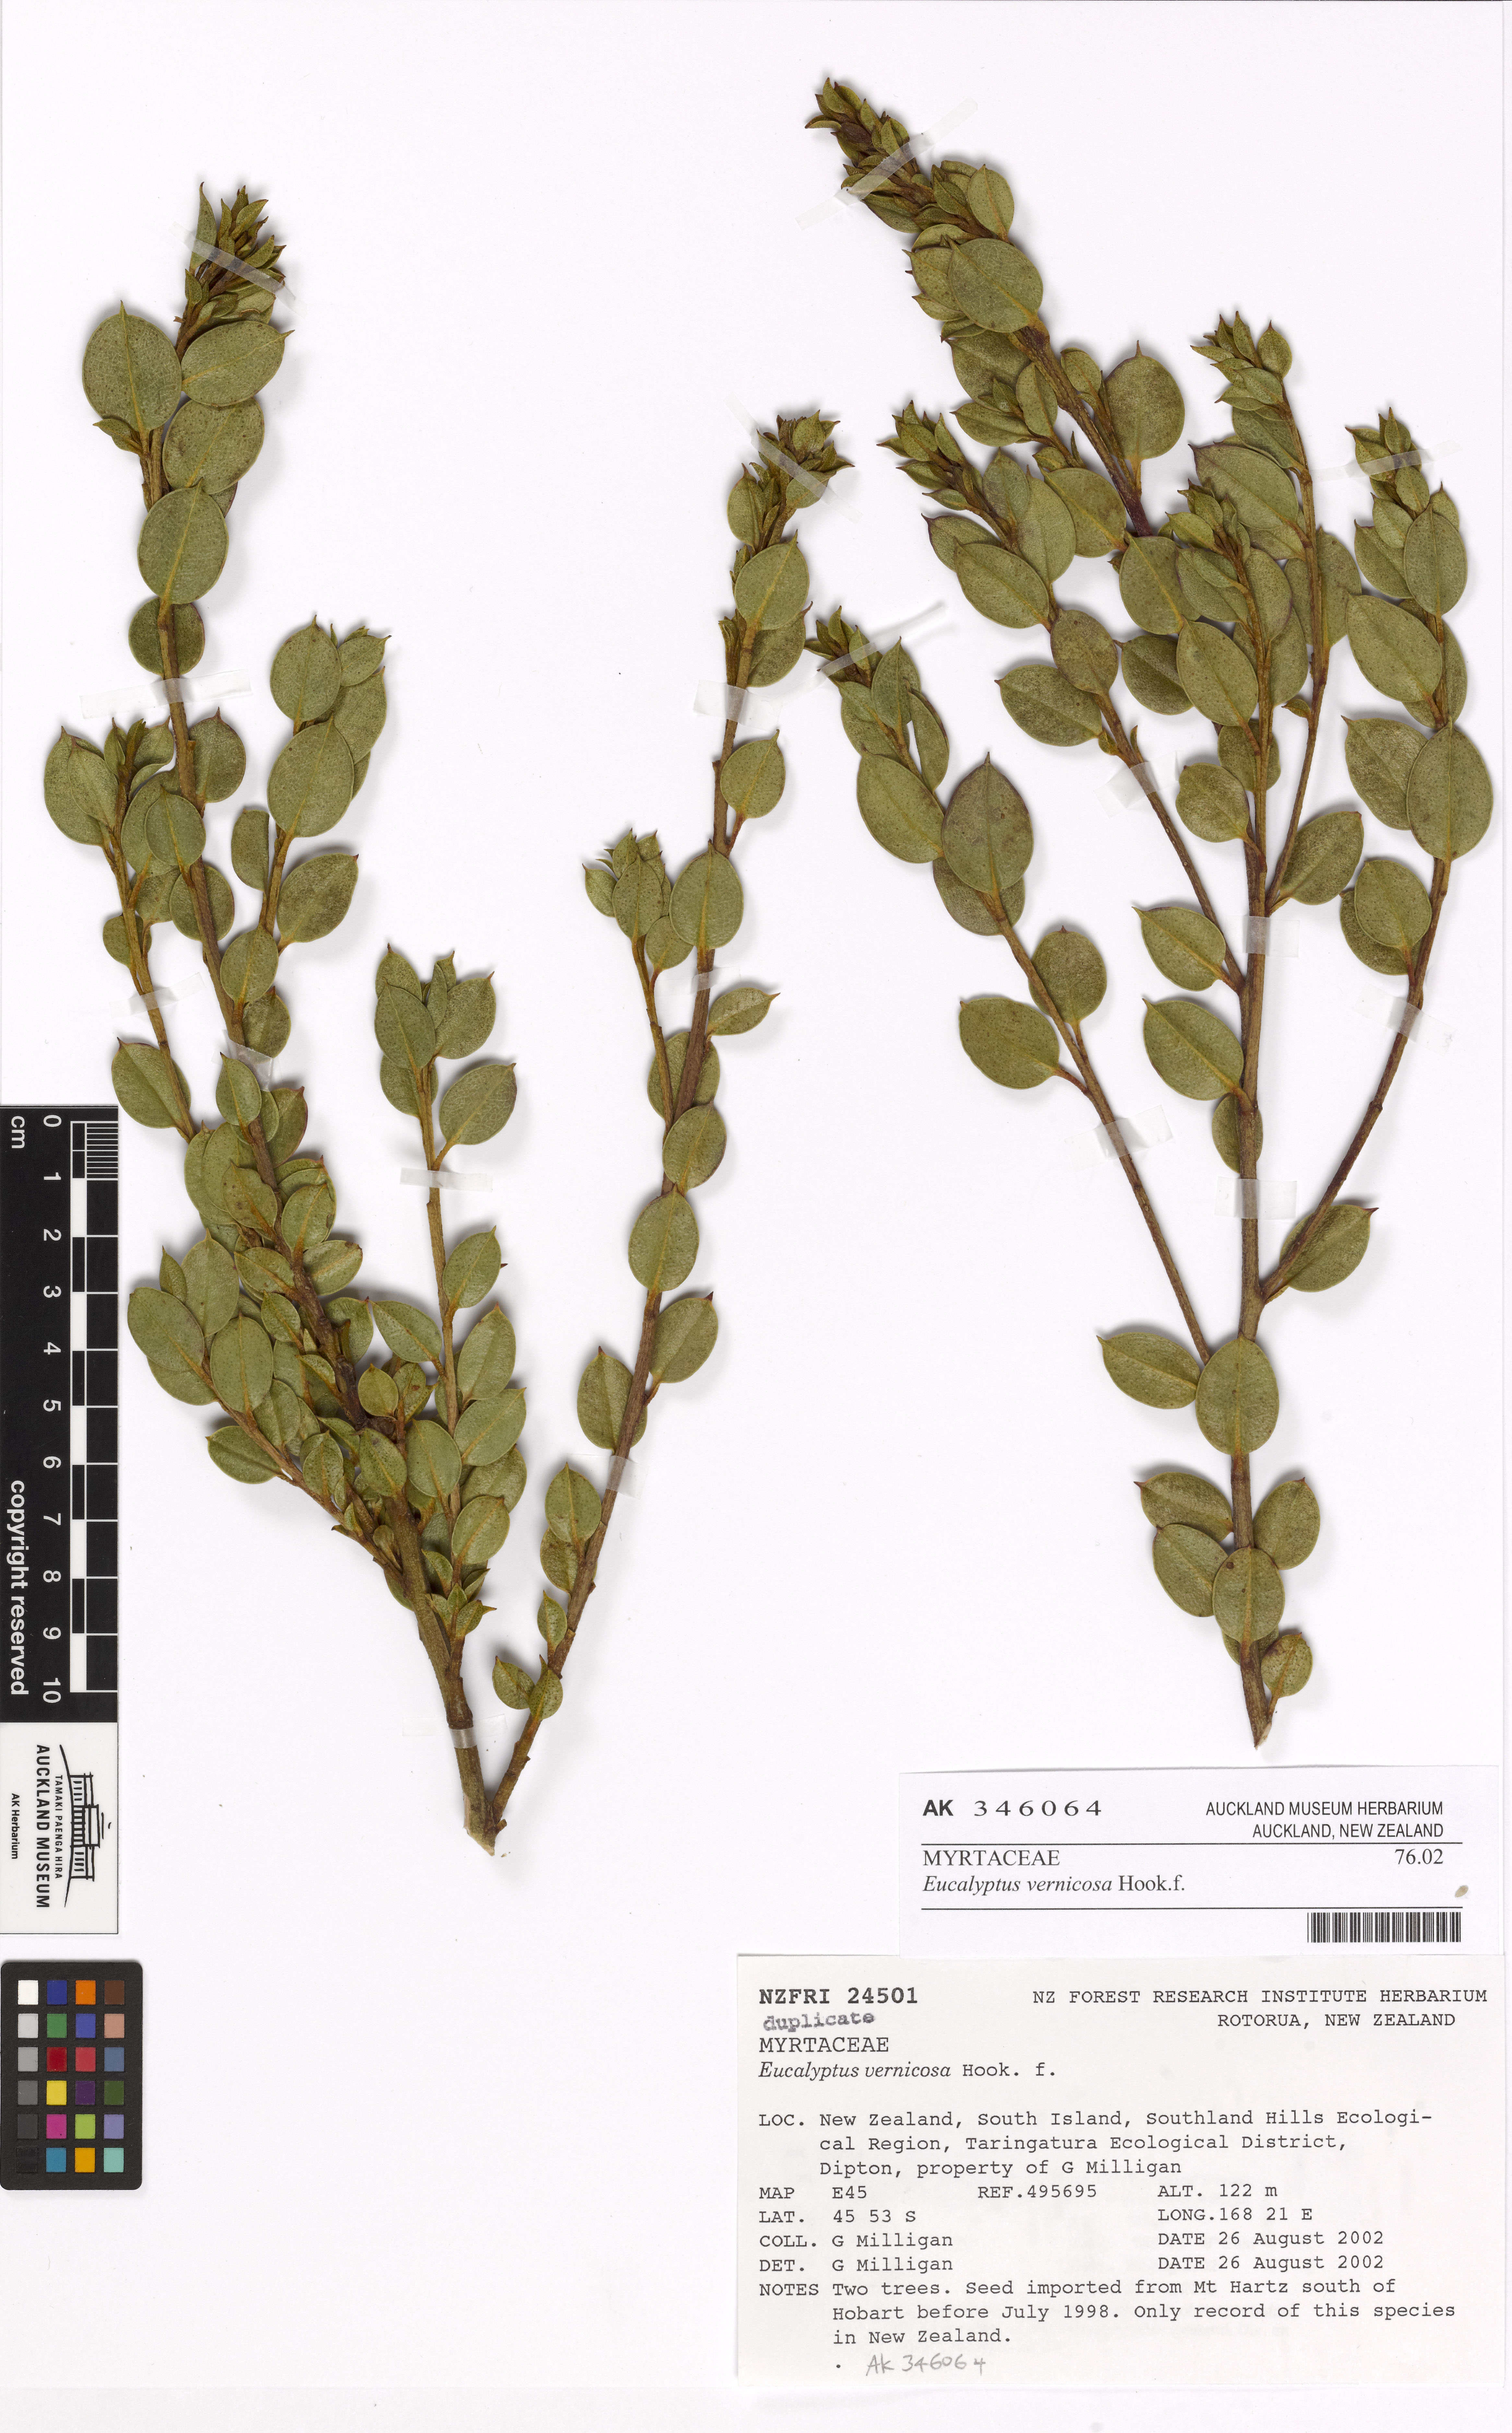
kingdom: Plantae
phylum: Tracheophyta
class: Magnoliopsida
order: Myrtales
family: Myrtaceae
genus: Eucalyptus
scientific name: Eucalyptus vernicosa
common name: Varnished gum
